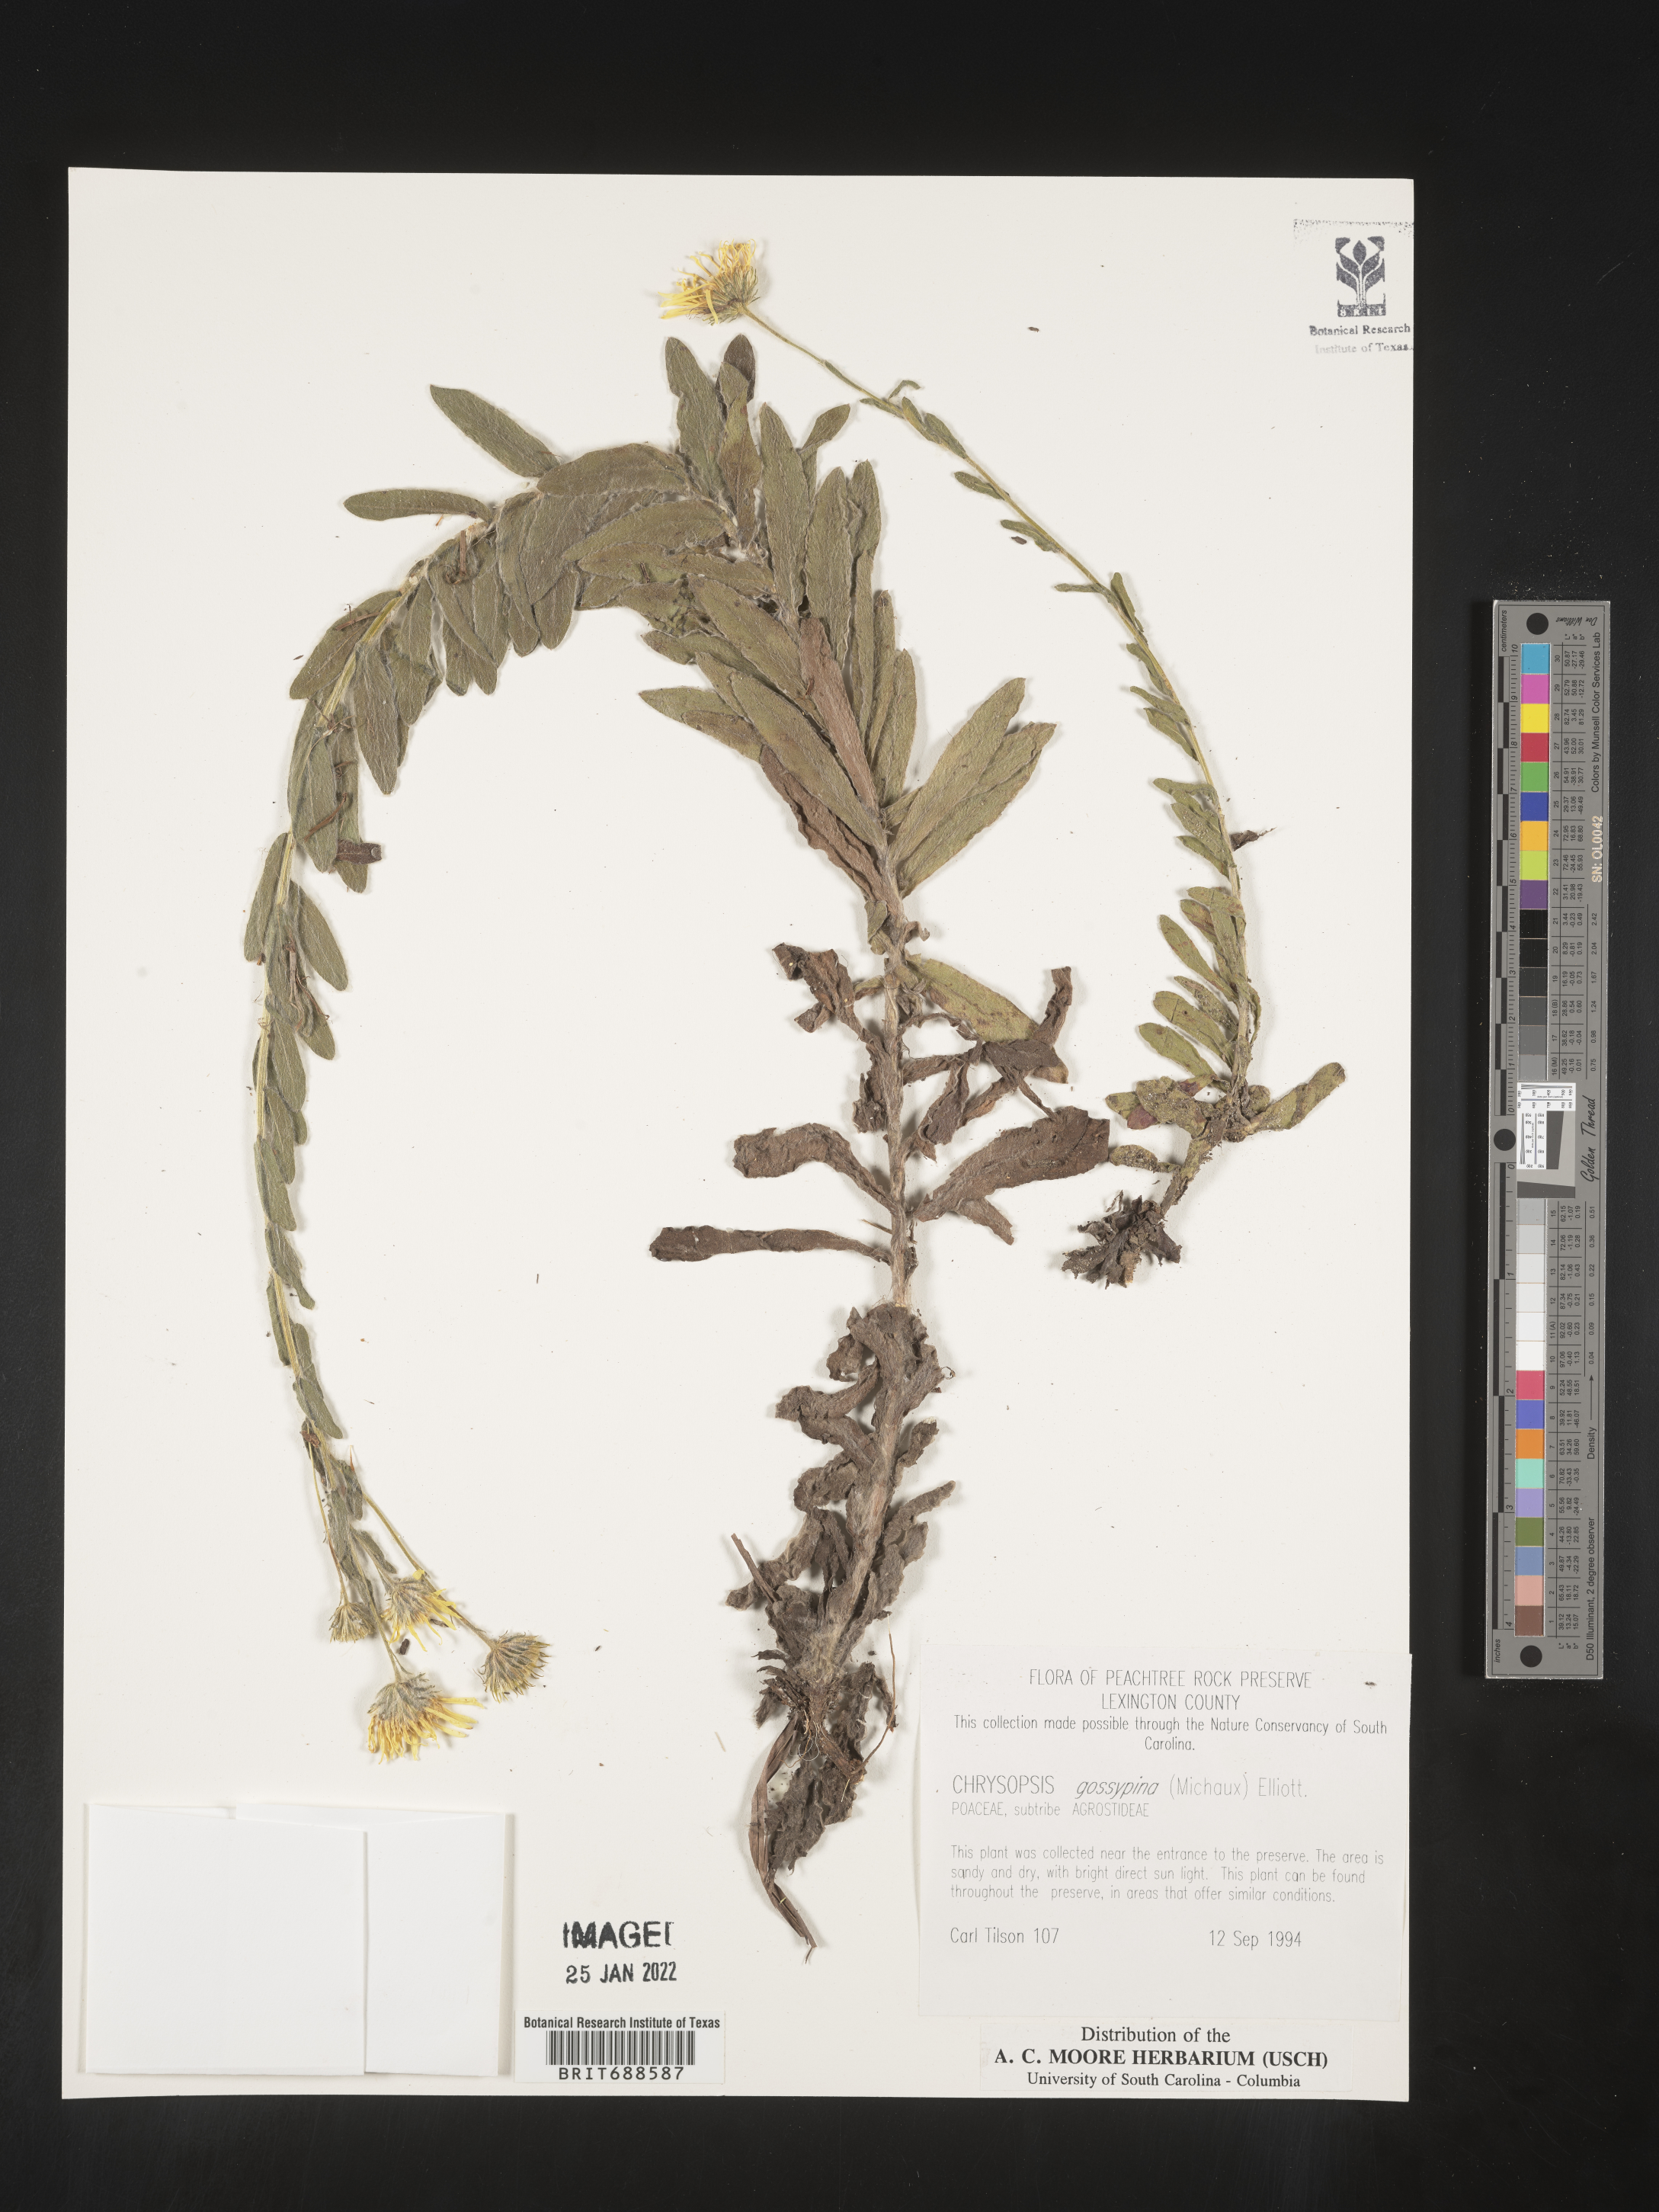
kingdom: Plantae
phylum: Tracheophyta
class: Magnoliopsida
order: Asterales
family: Asteraceae
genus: Chrysopsis
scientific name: Chrysopsis gossypina
